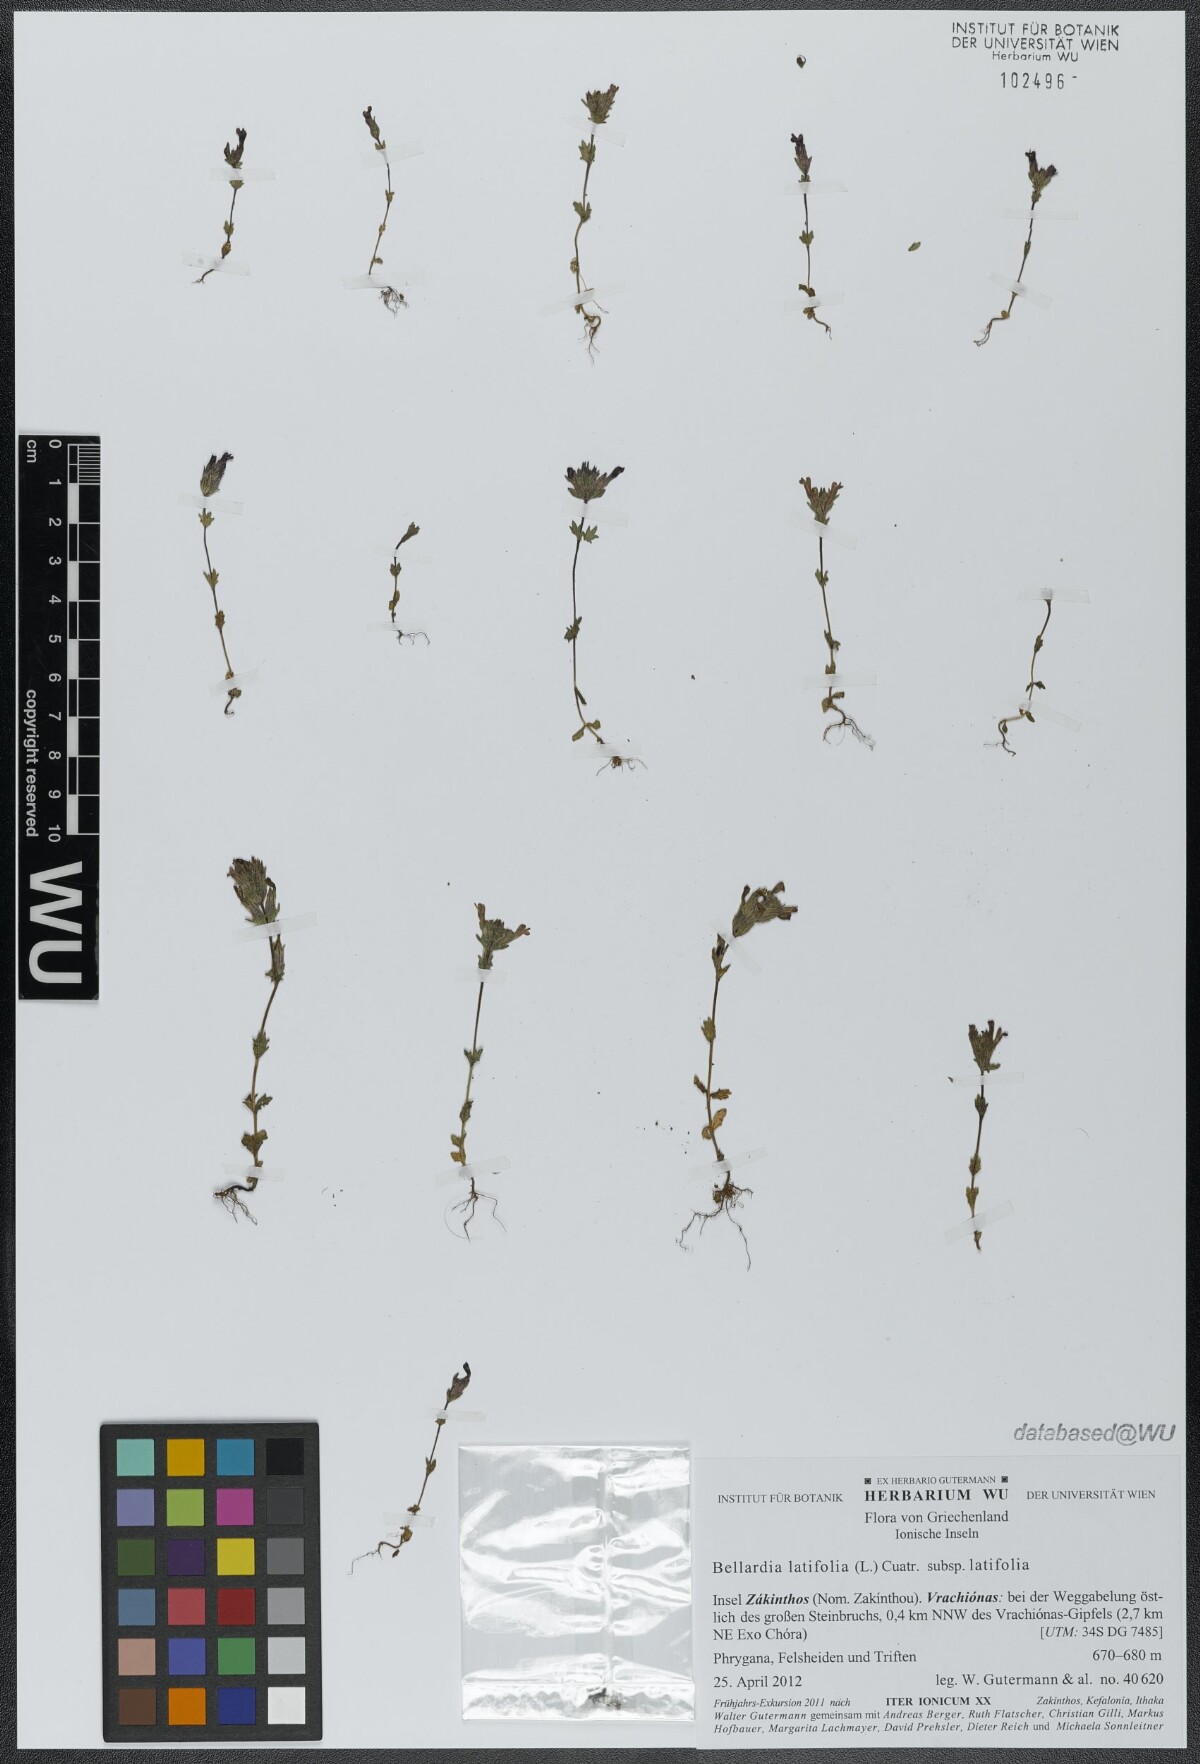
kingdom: Plantae
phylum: Tracheophyta
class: Magnoliopsida
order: Lamiales
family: Orobanchaceae
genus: Parentucellia
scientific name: Parentucellia latifolia
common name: Broadleaf glandweed
